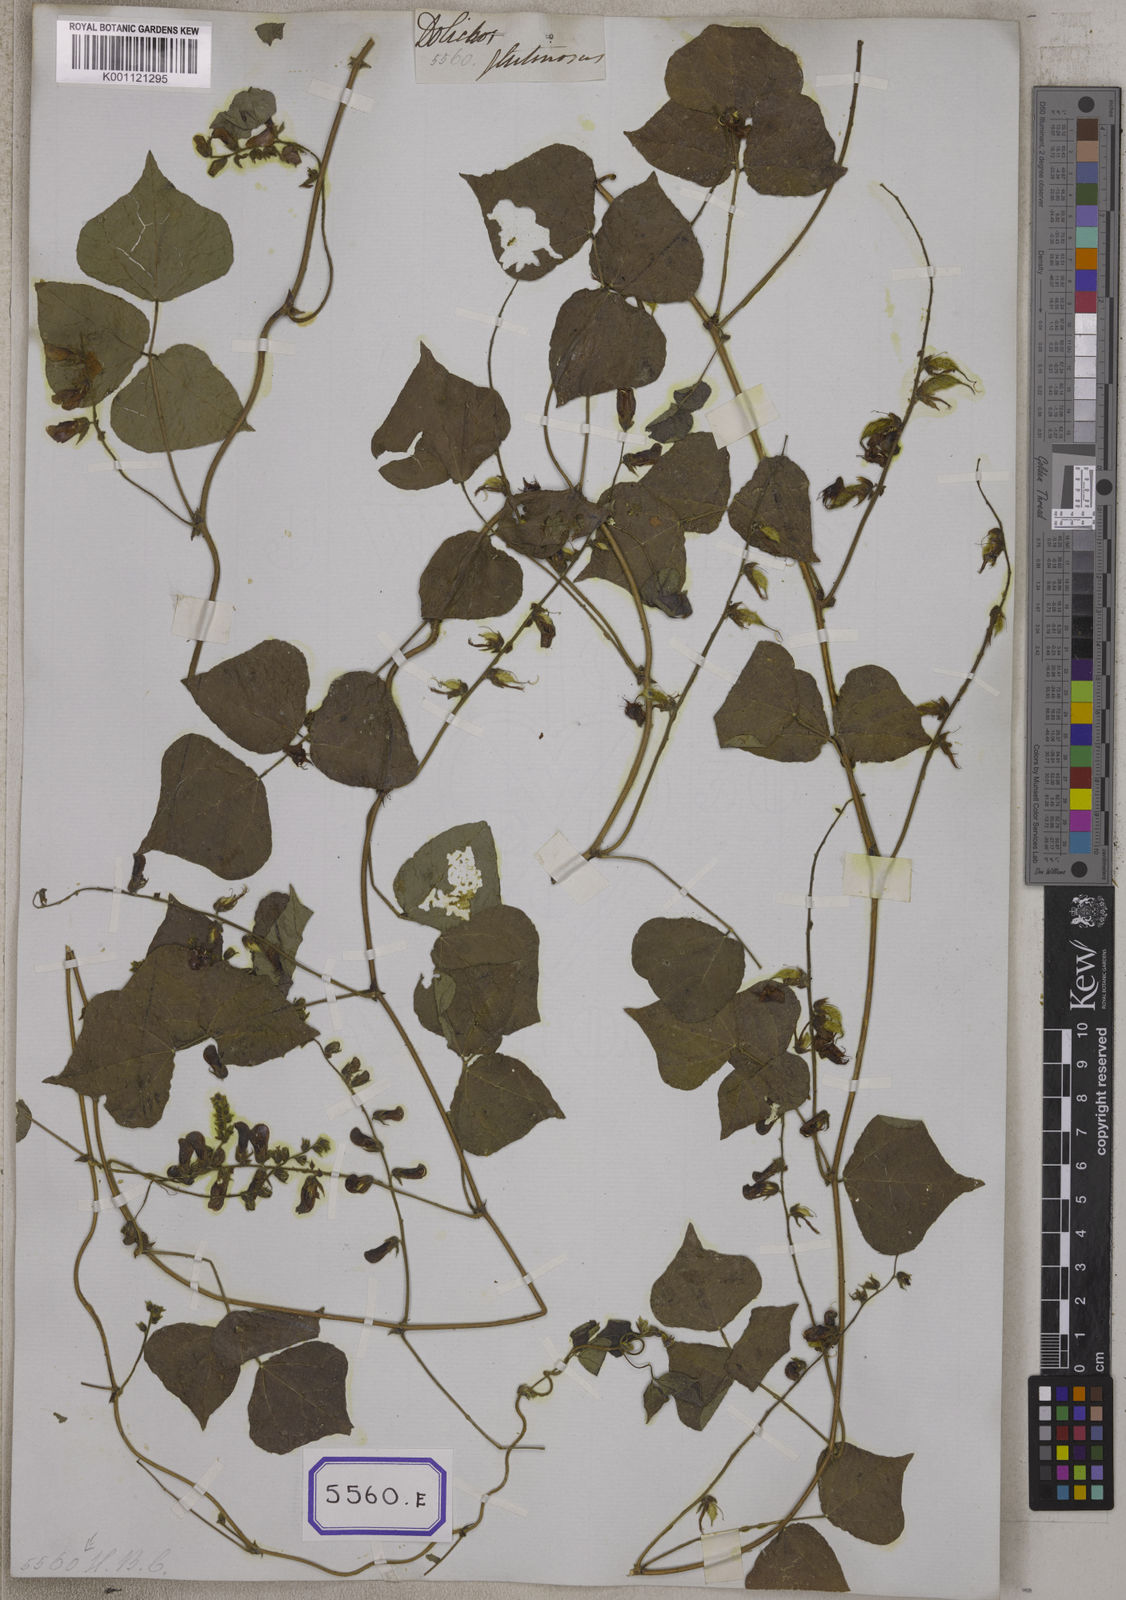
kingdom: Plantae
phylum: Tracheophyta
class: Magnoliopsida
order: Fabales
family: Fabaceae
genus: Rhynchosia
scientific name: Rhynchosia viscosa
